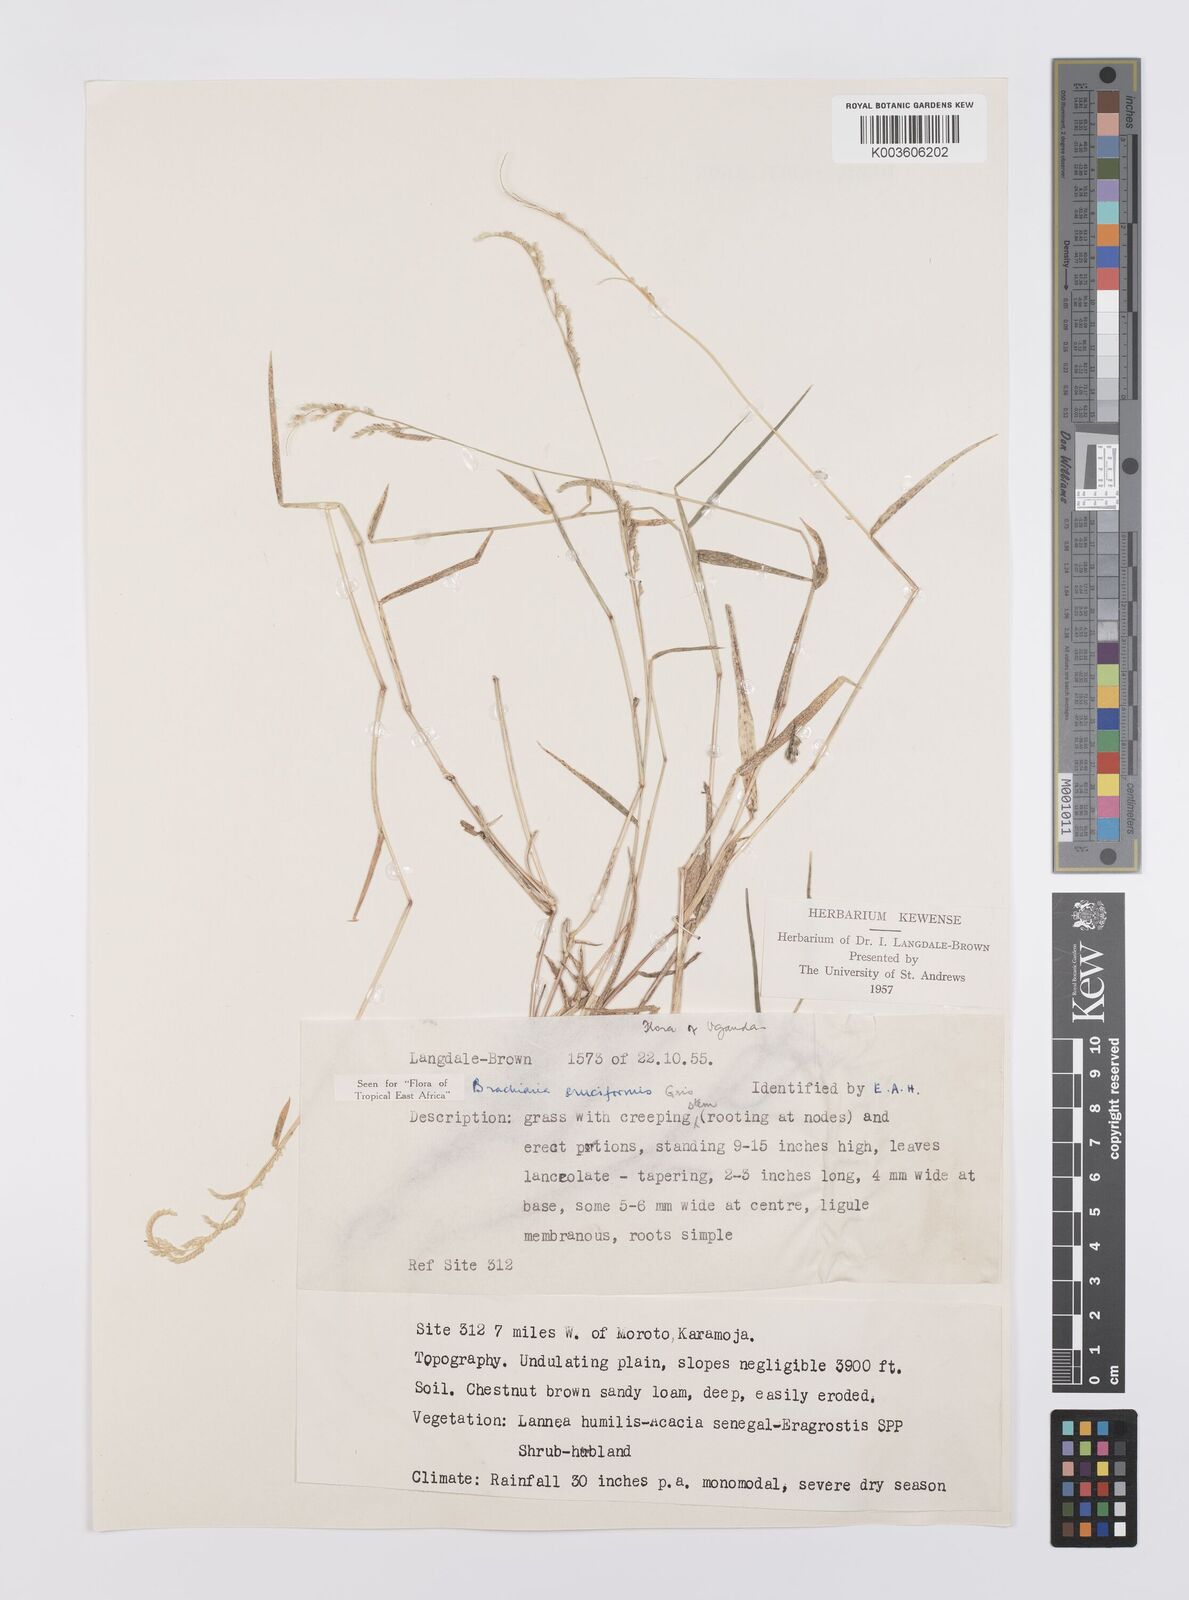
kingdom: Plantae
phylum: Tracheophyta
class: Liliopsida
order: Poales
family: Poaceae
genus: Moorochloa
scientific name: Moorochloa eruciformis
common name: Sweet signalgrass
